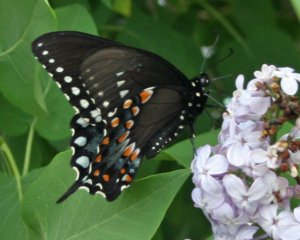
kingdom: Animalia
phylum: Arthropoda
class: Insecta
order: Lepidoptera
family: Papilionidae
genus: Papilio
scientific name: Papilio polyxenes
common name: Black Swallowtail
